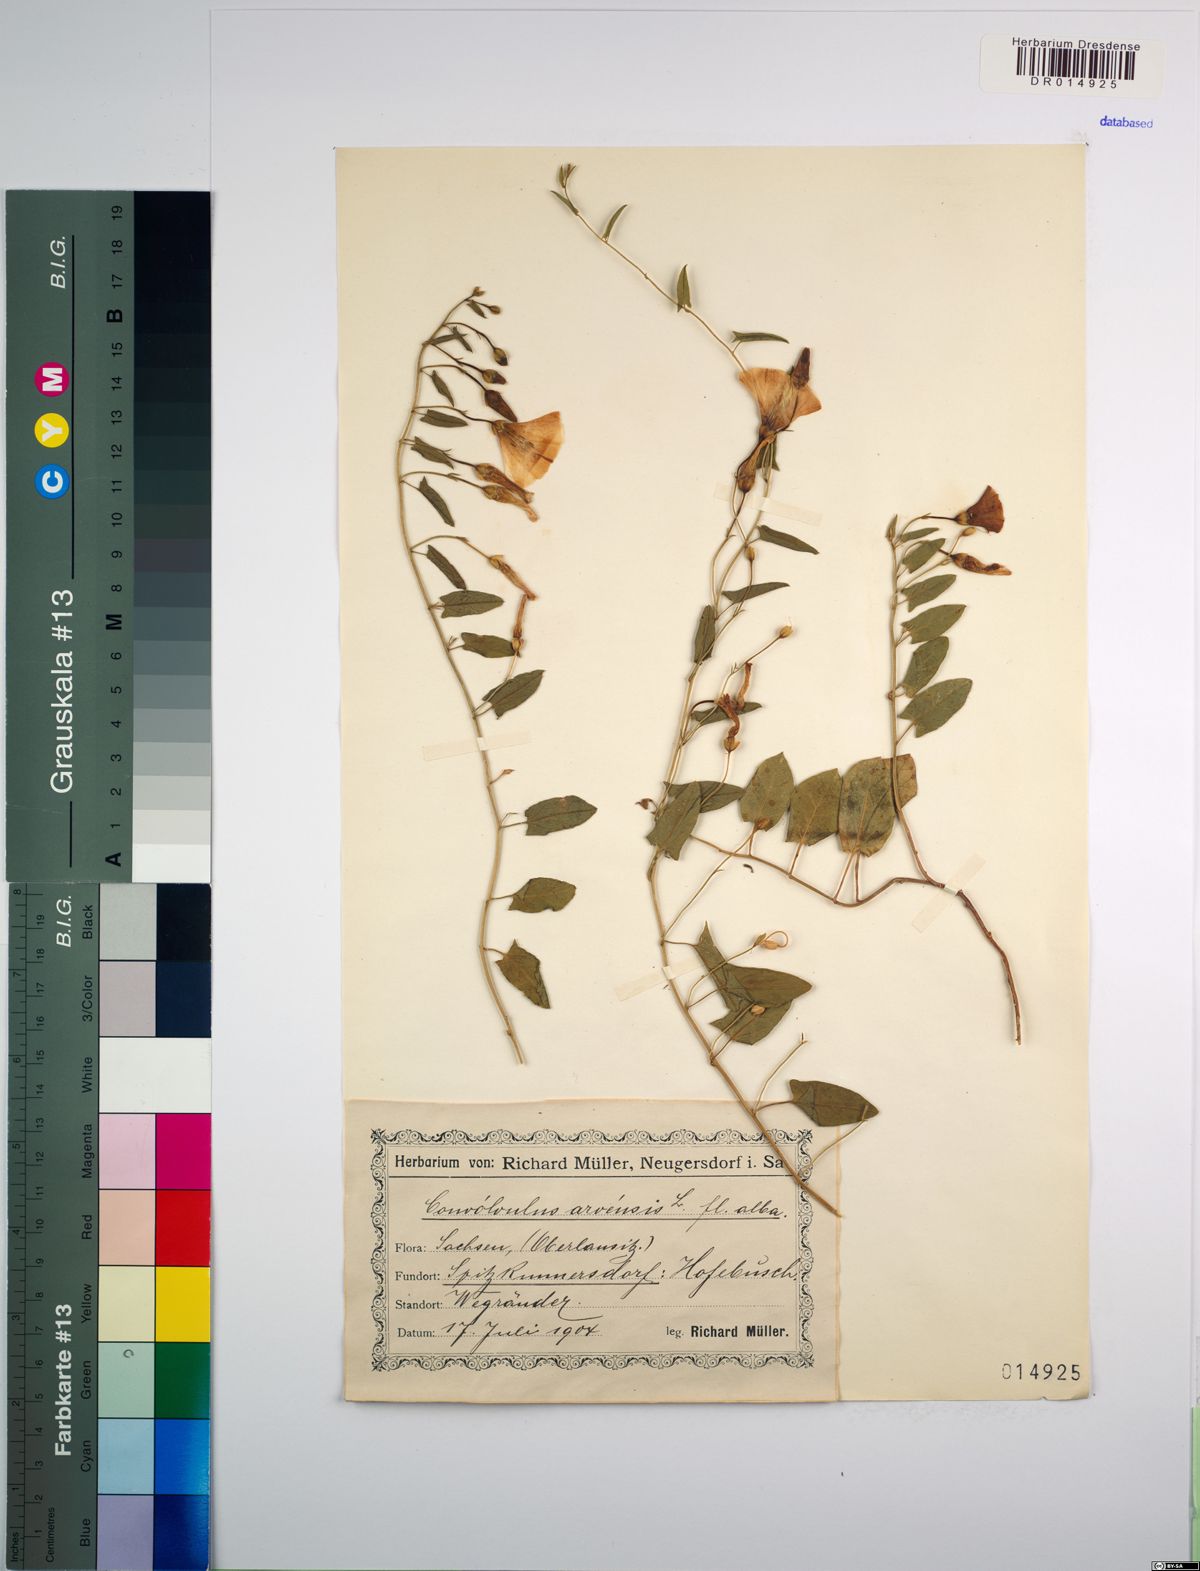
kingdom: Plantae
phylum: Tracheophyta
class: Magnoliopsida
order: Solanales
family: Convolvulaceae
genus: Convolvulus
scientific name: Convolvulus arvensis
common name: Field bindweed
